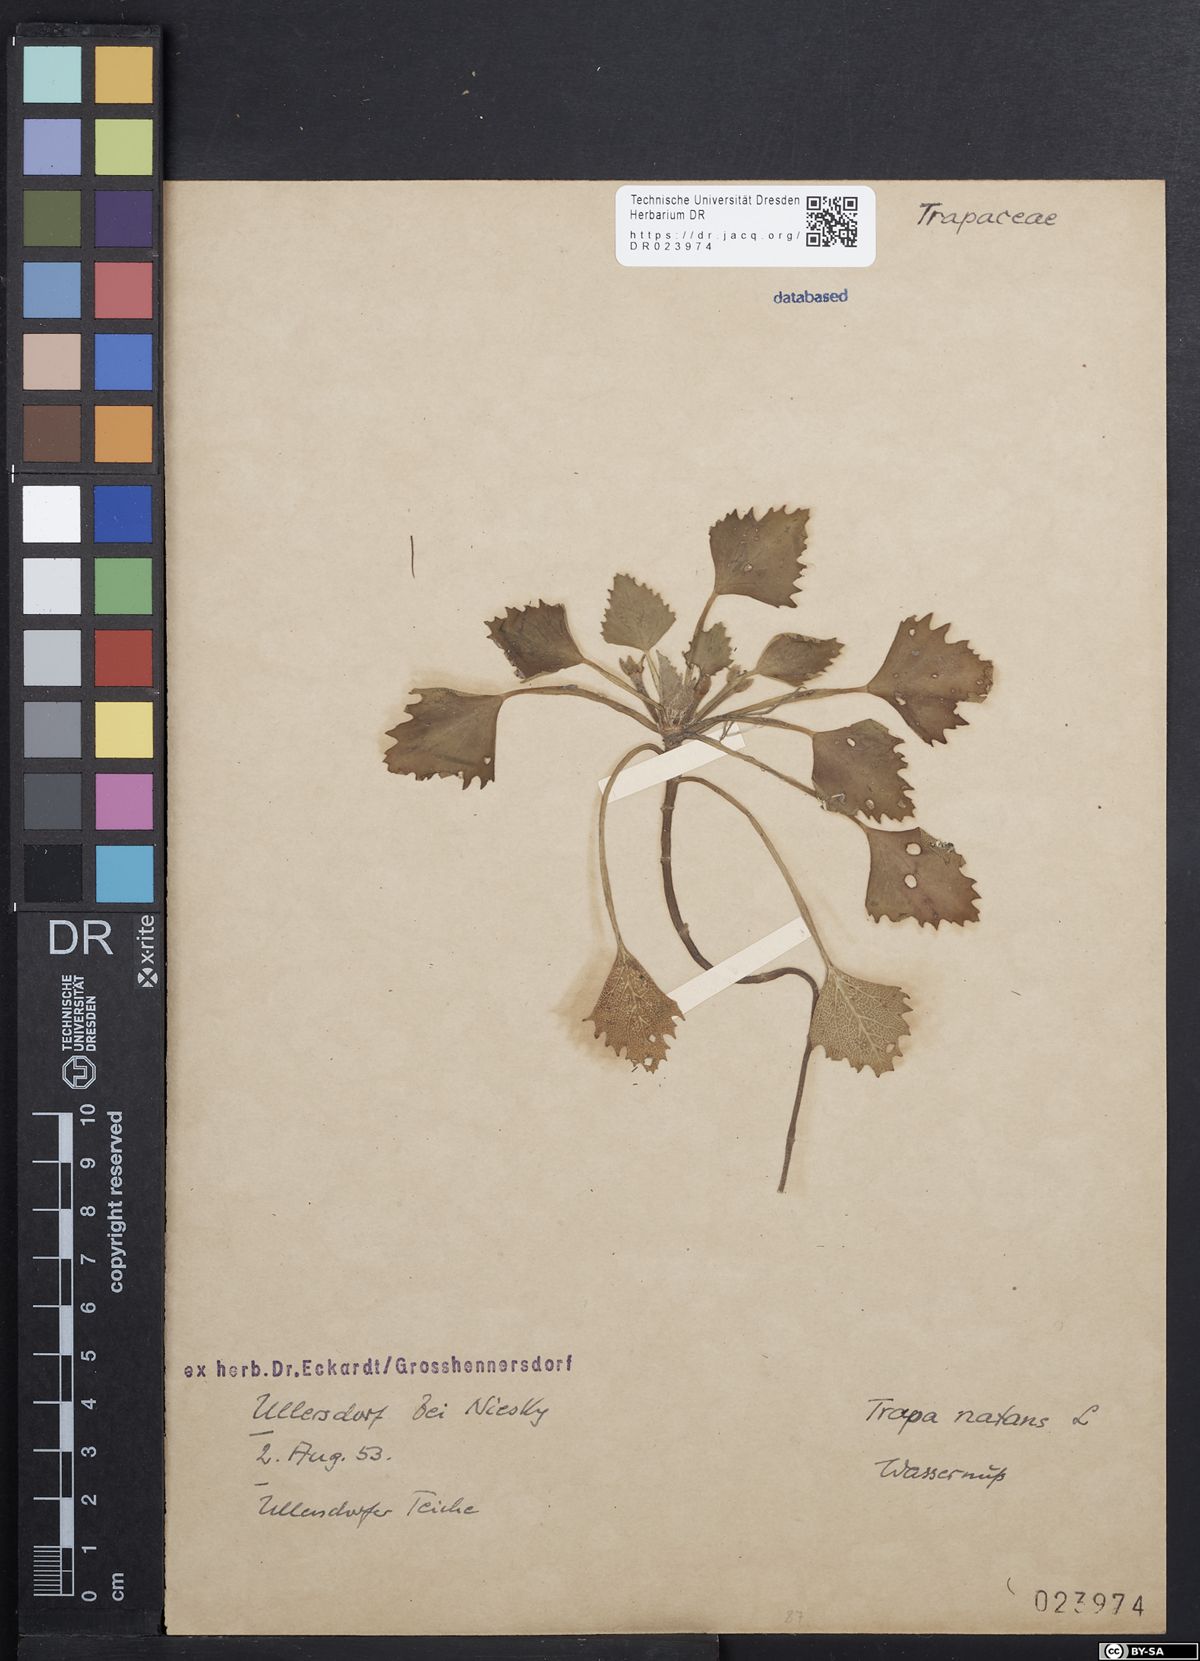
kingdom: Plantae
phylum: Tracheophyta
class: Magnoliopsida
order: Myrtales
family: Lythraceae
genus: Trapa
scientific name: Trapa natans
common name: Water chestnut
